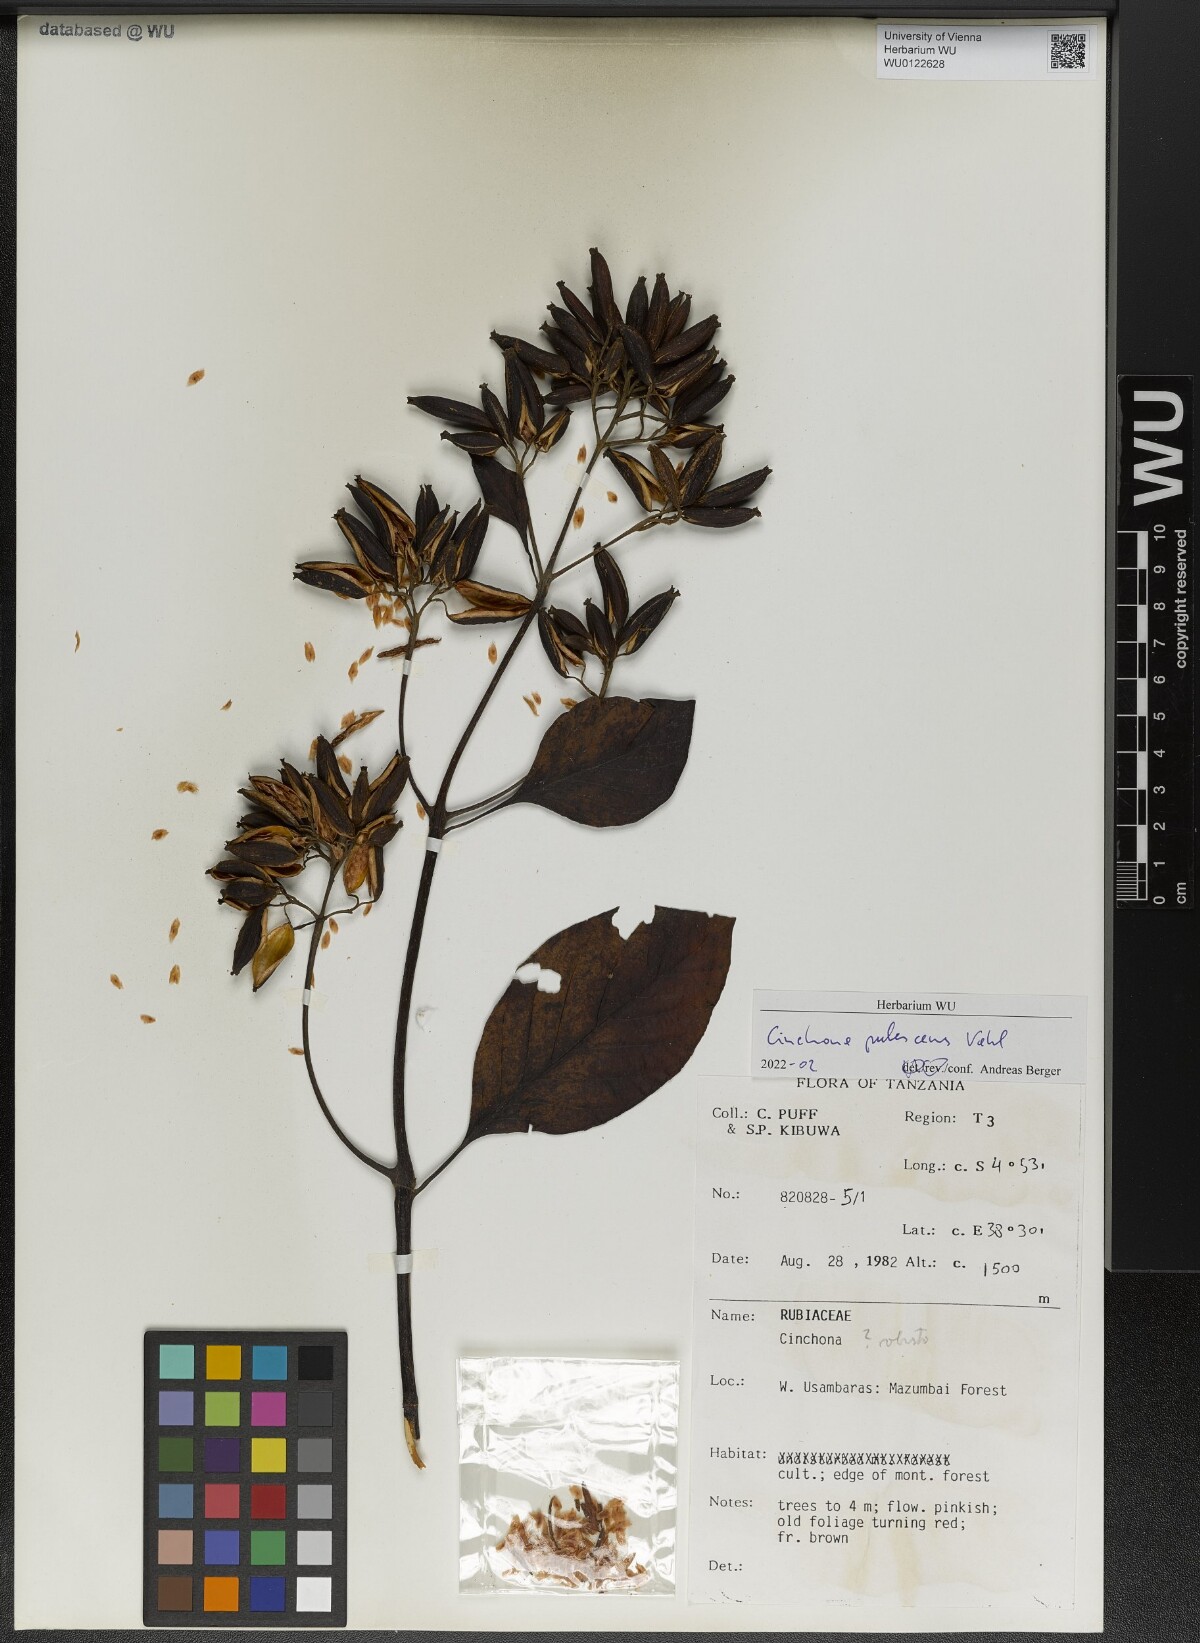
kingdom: Plantae
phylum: Tracheophyta
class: Magnoliopsida
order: Gentianales
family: Rubiaceae
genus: Cinchona
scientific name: Cinchona pubescens
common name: Quinine
